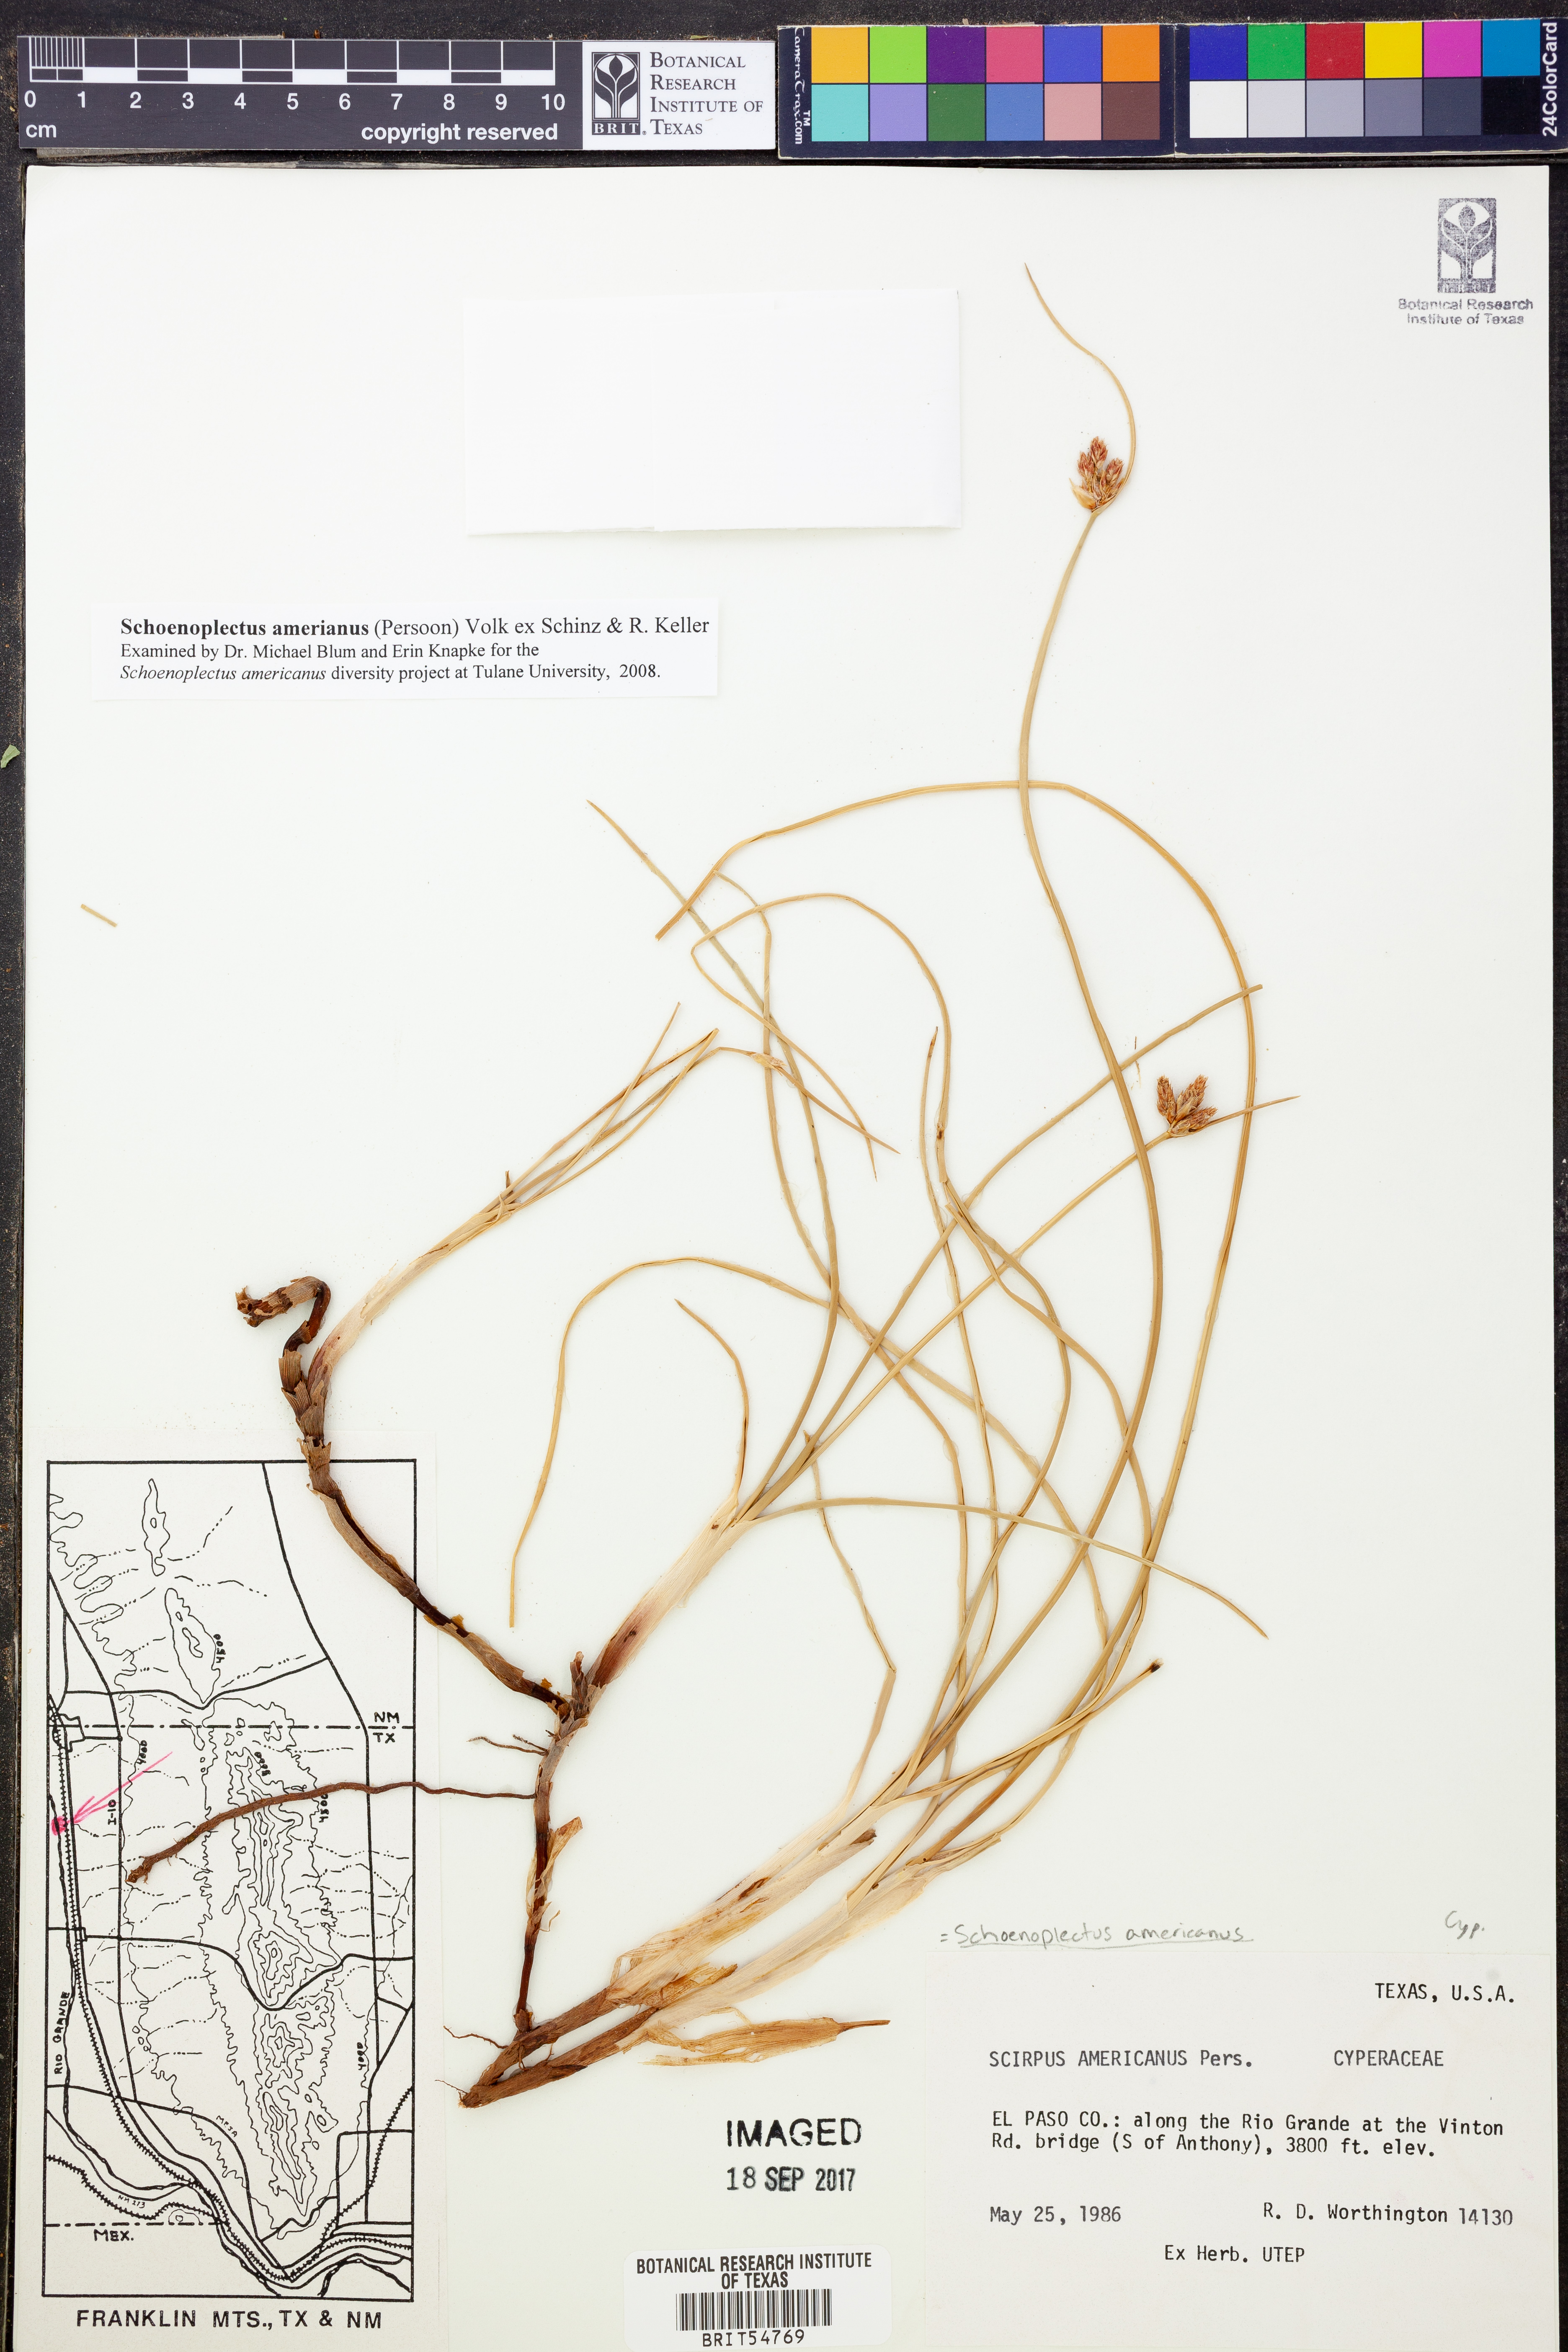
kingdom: Plantae
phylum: Tracheophyta
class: Liliopsida
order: Poales
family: Cyperaceae
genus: Schoenoplectus
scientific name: Schoenoplectus americanus
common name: American three-square bulrush
